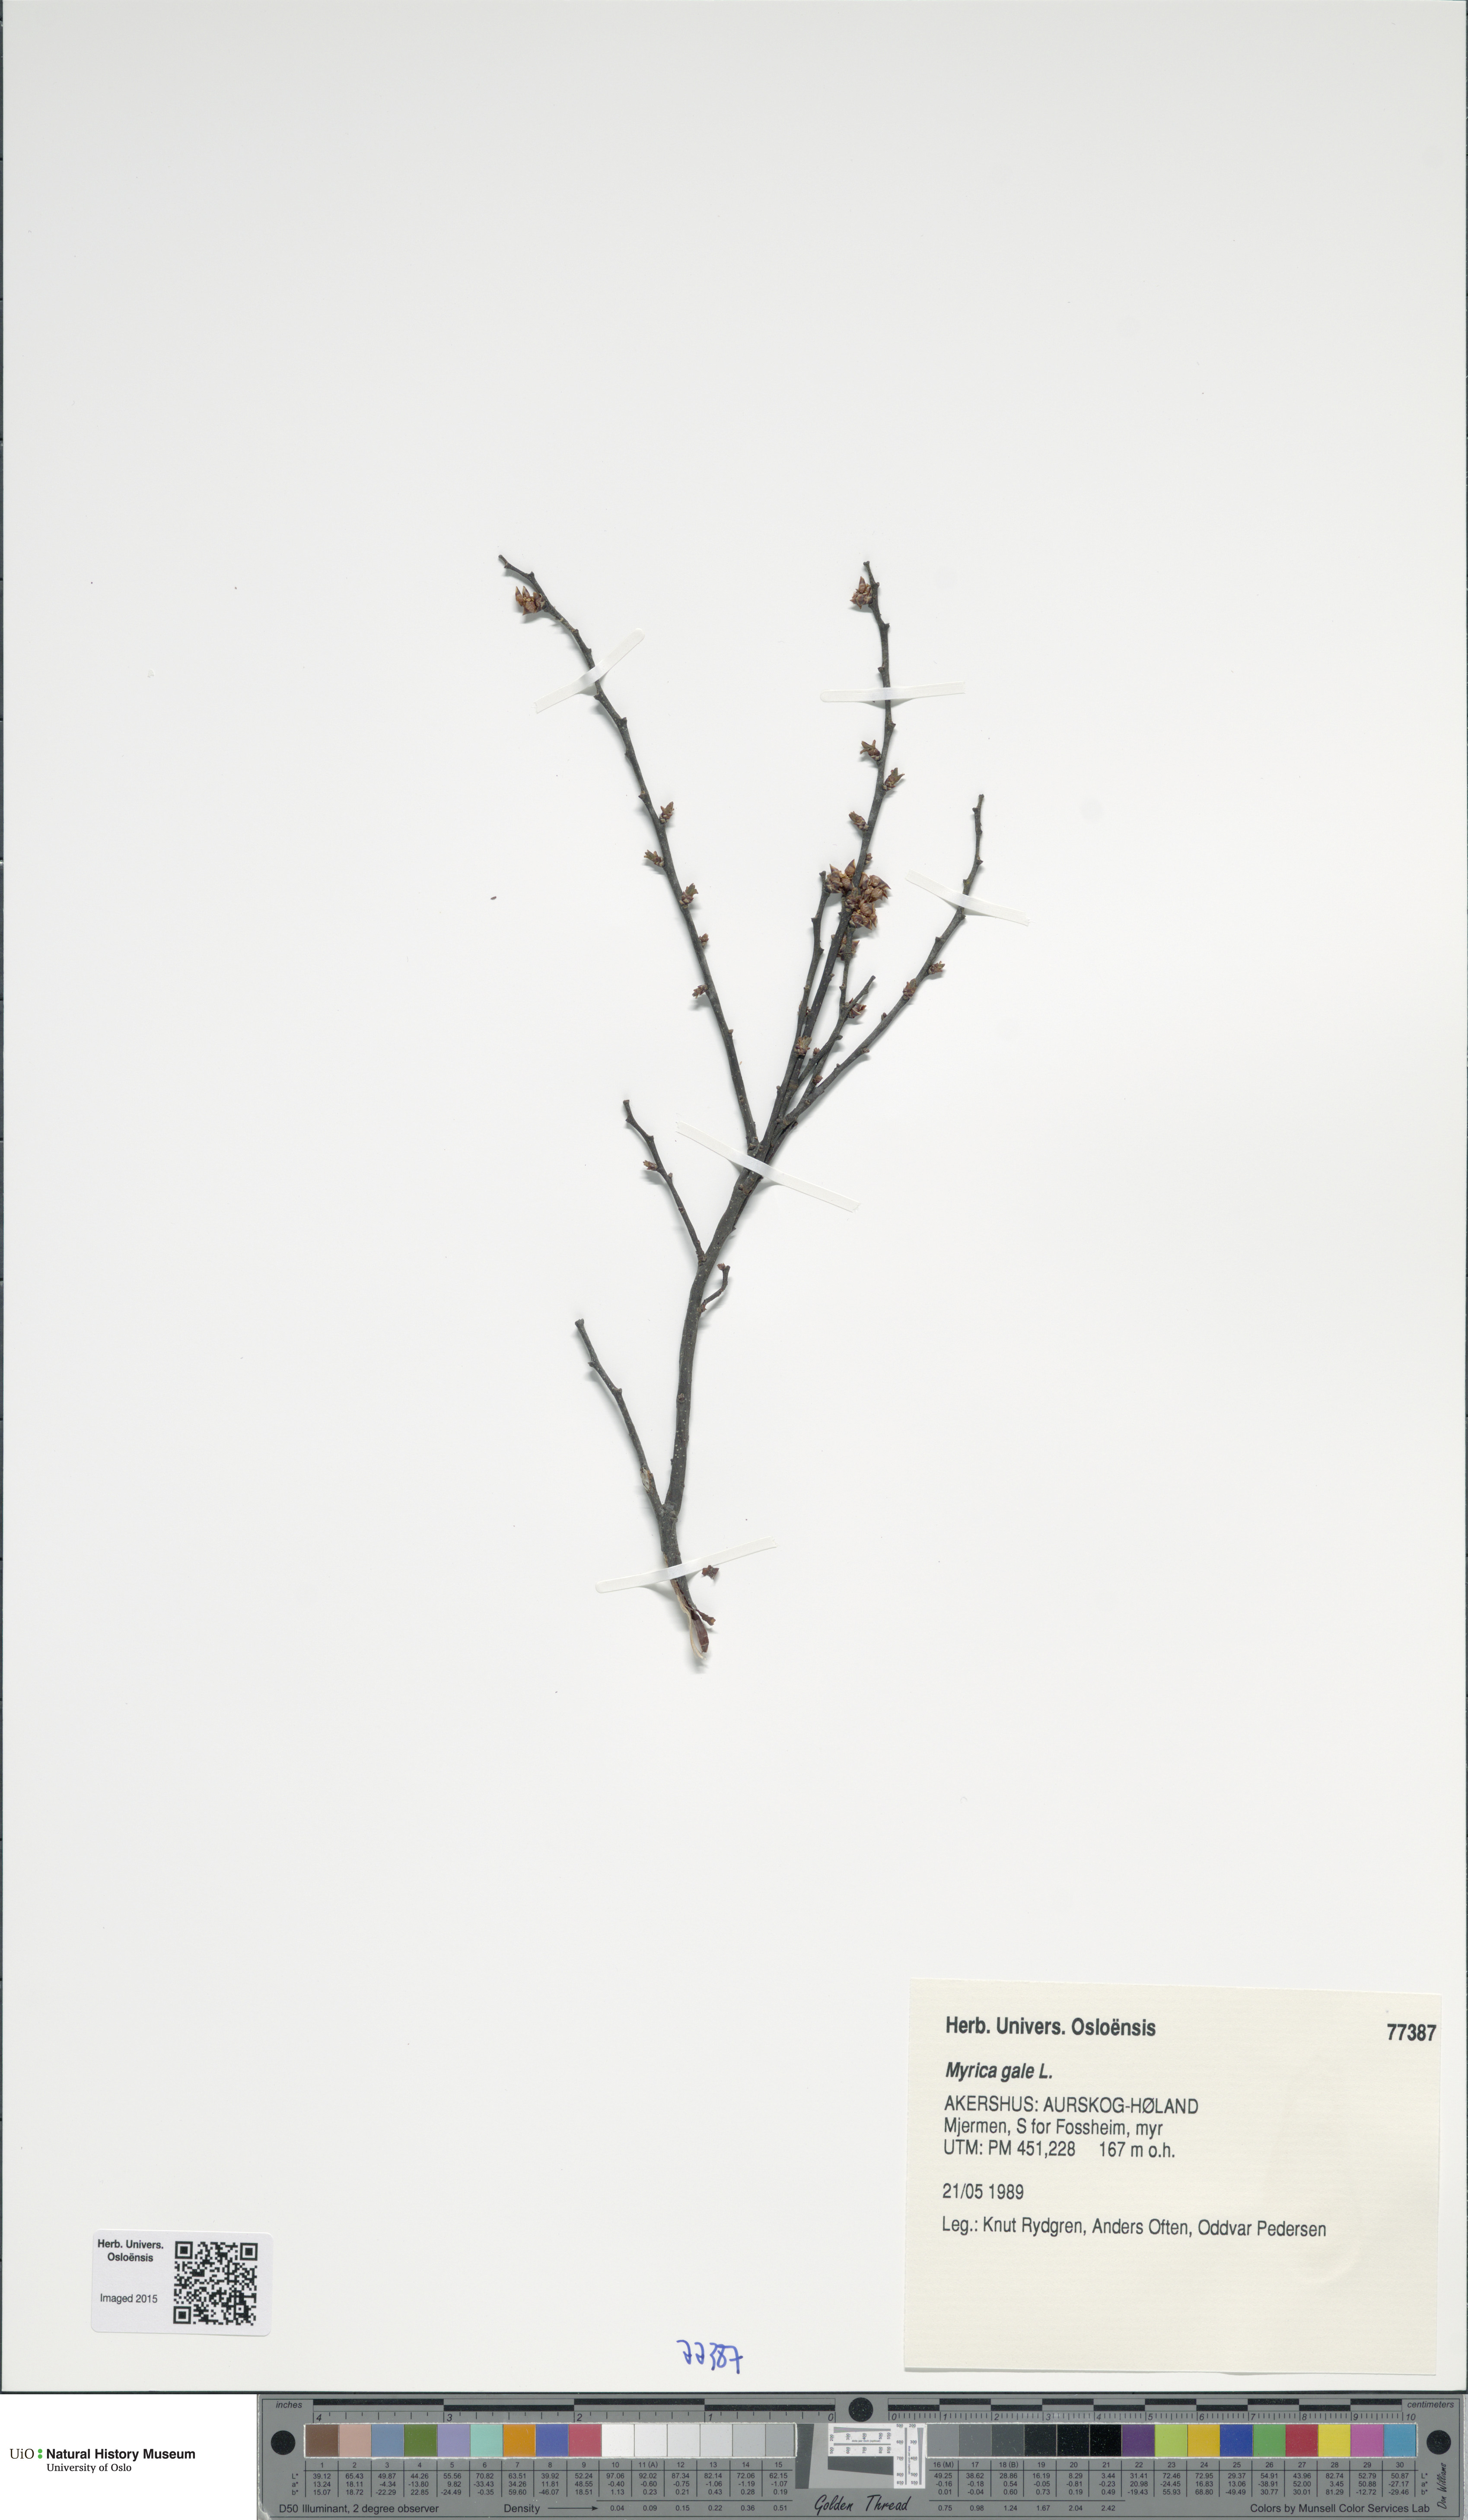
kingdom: Plantae
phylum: Tracheophyta
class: Magnoliopsida
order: Fagales
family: Myricaceae
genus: Myrica
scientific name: Myrica gale
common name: Sweet gale
